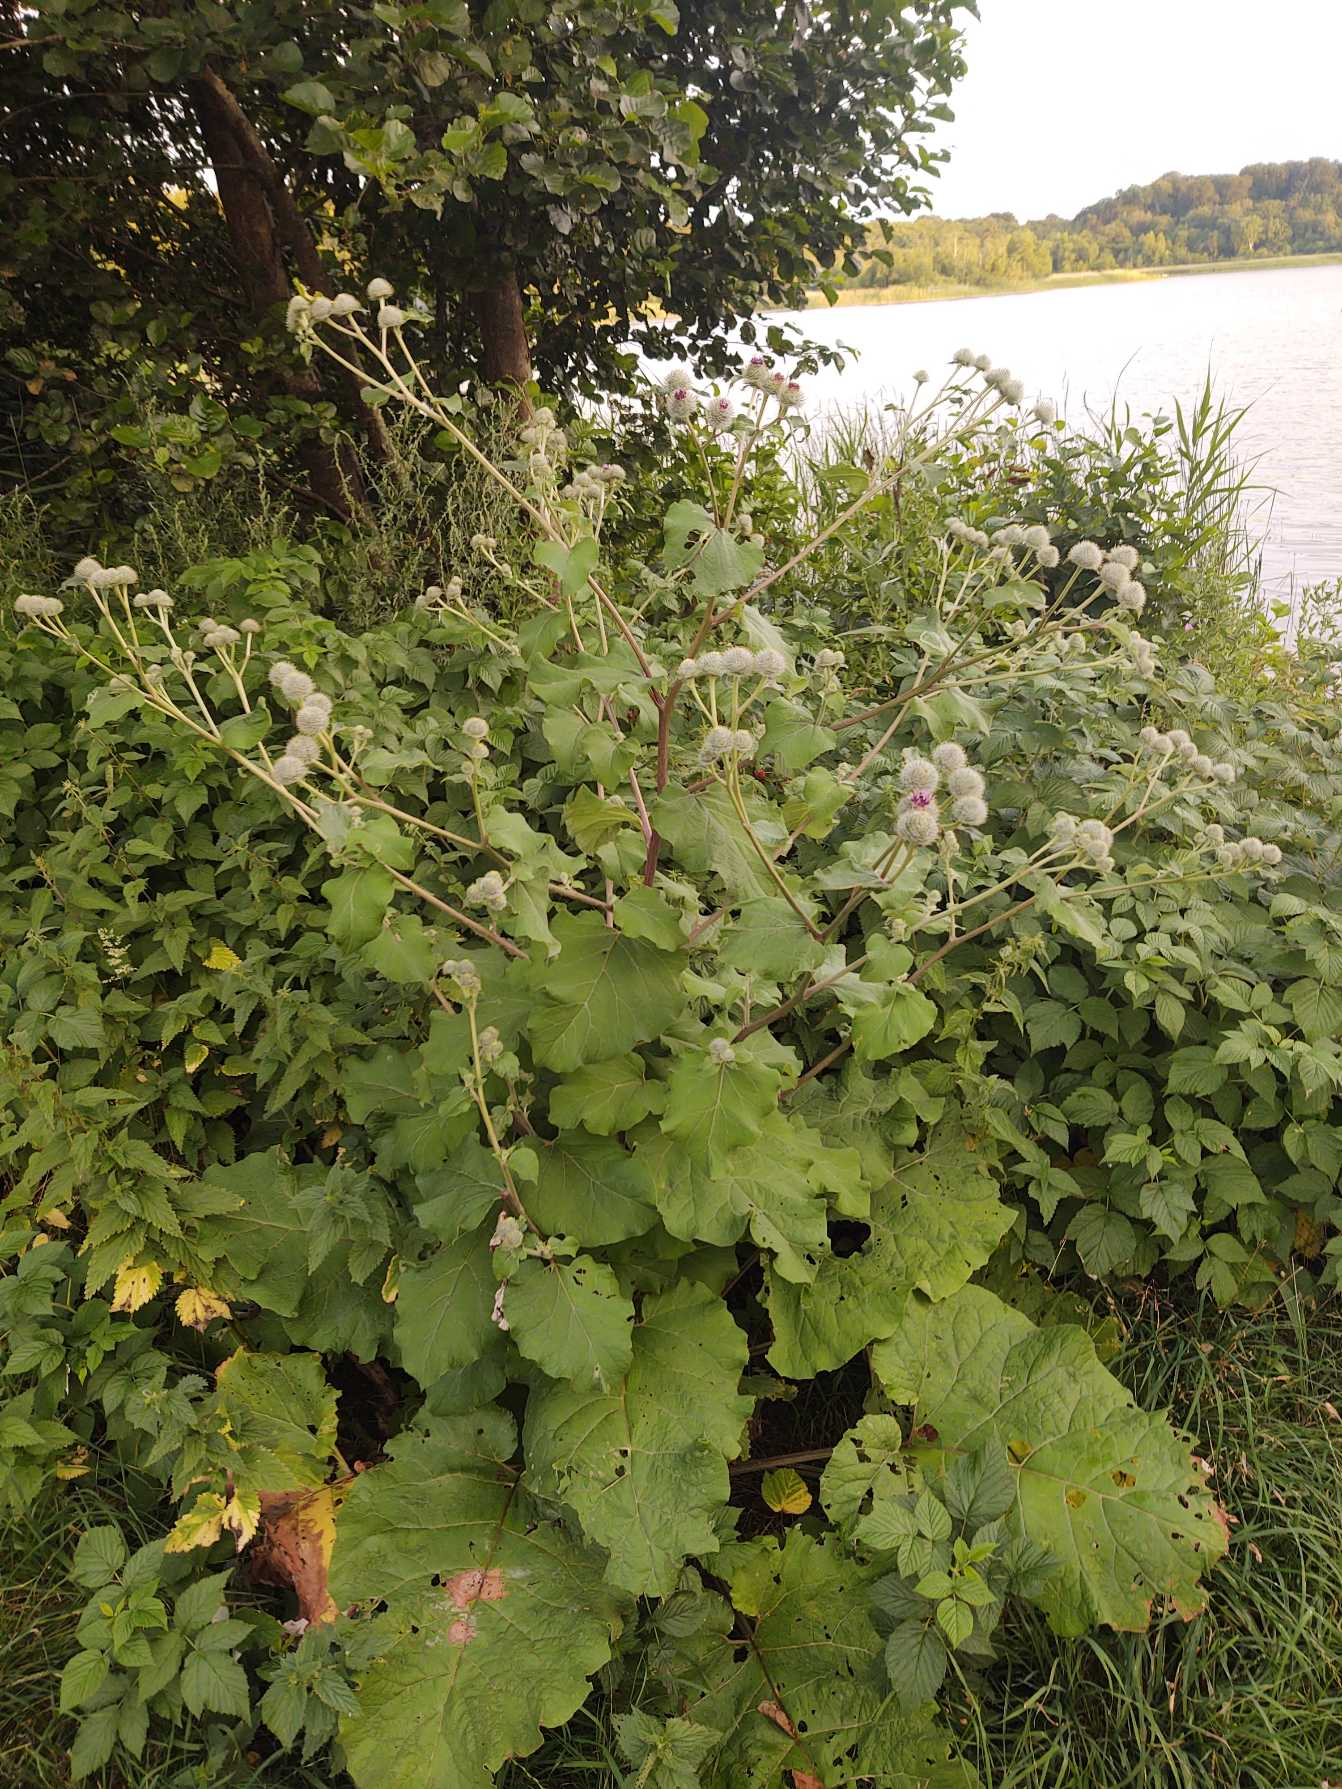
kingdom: Plantae
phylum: Tracheophyta
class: Magnoliopsida
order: Asterales
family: Asteraceae
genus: Arctium
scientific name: Arctium tomentosum
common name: Filtet burre
